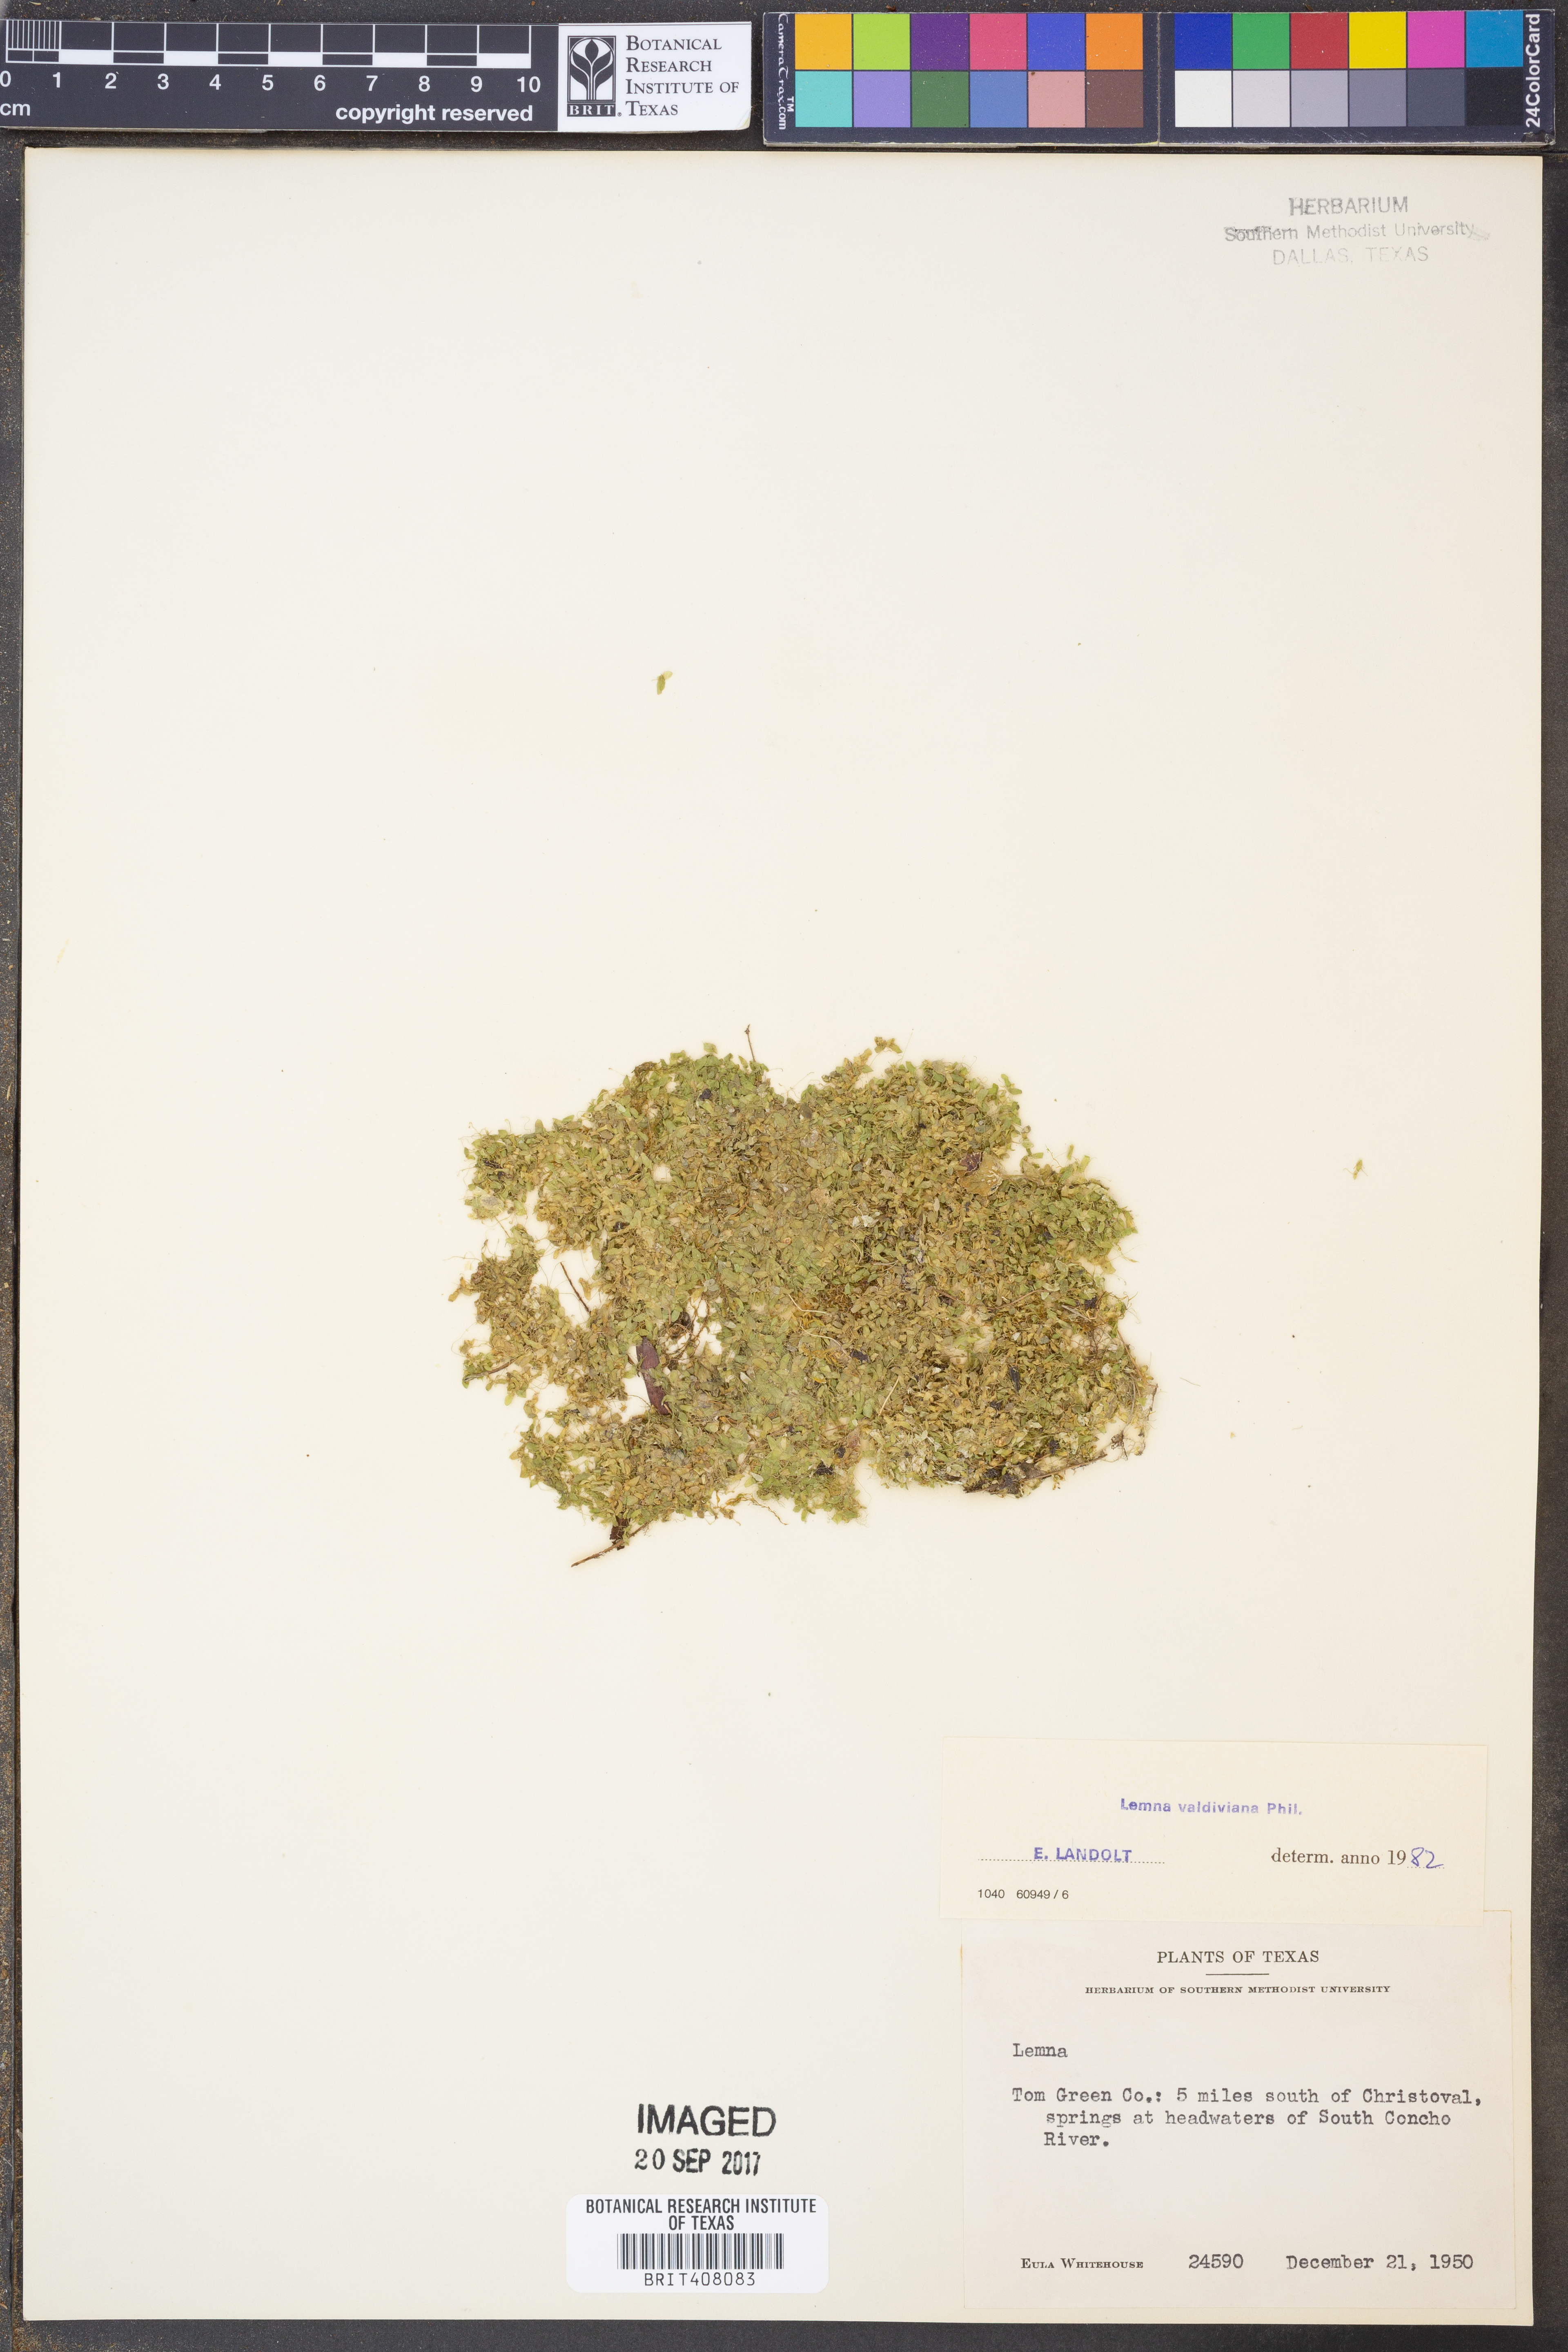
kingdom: Plantae
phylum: Tracheophyta
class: Liliopsida
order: Alismatales
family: Araceae
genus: Lemna
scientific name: Lemna valdiviana
